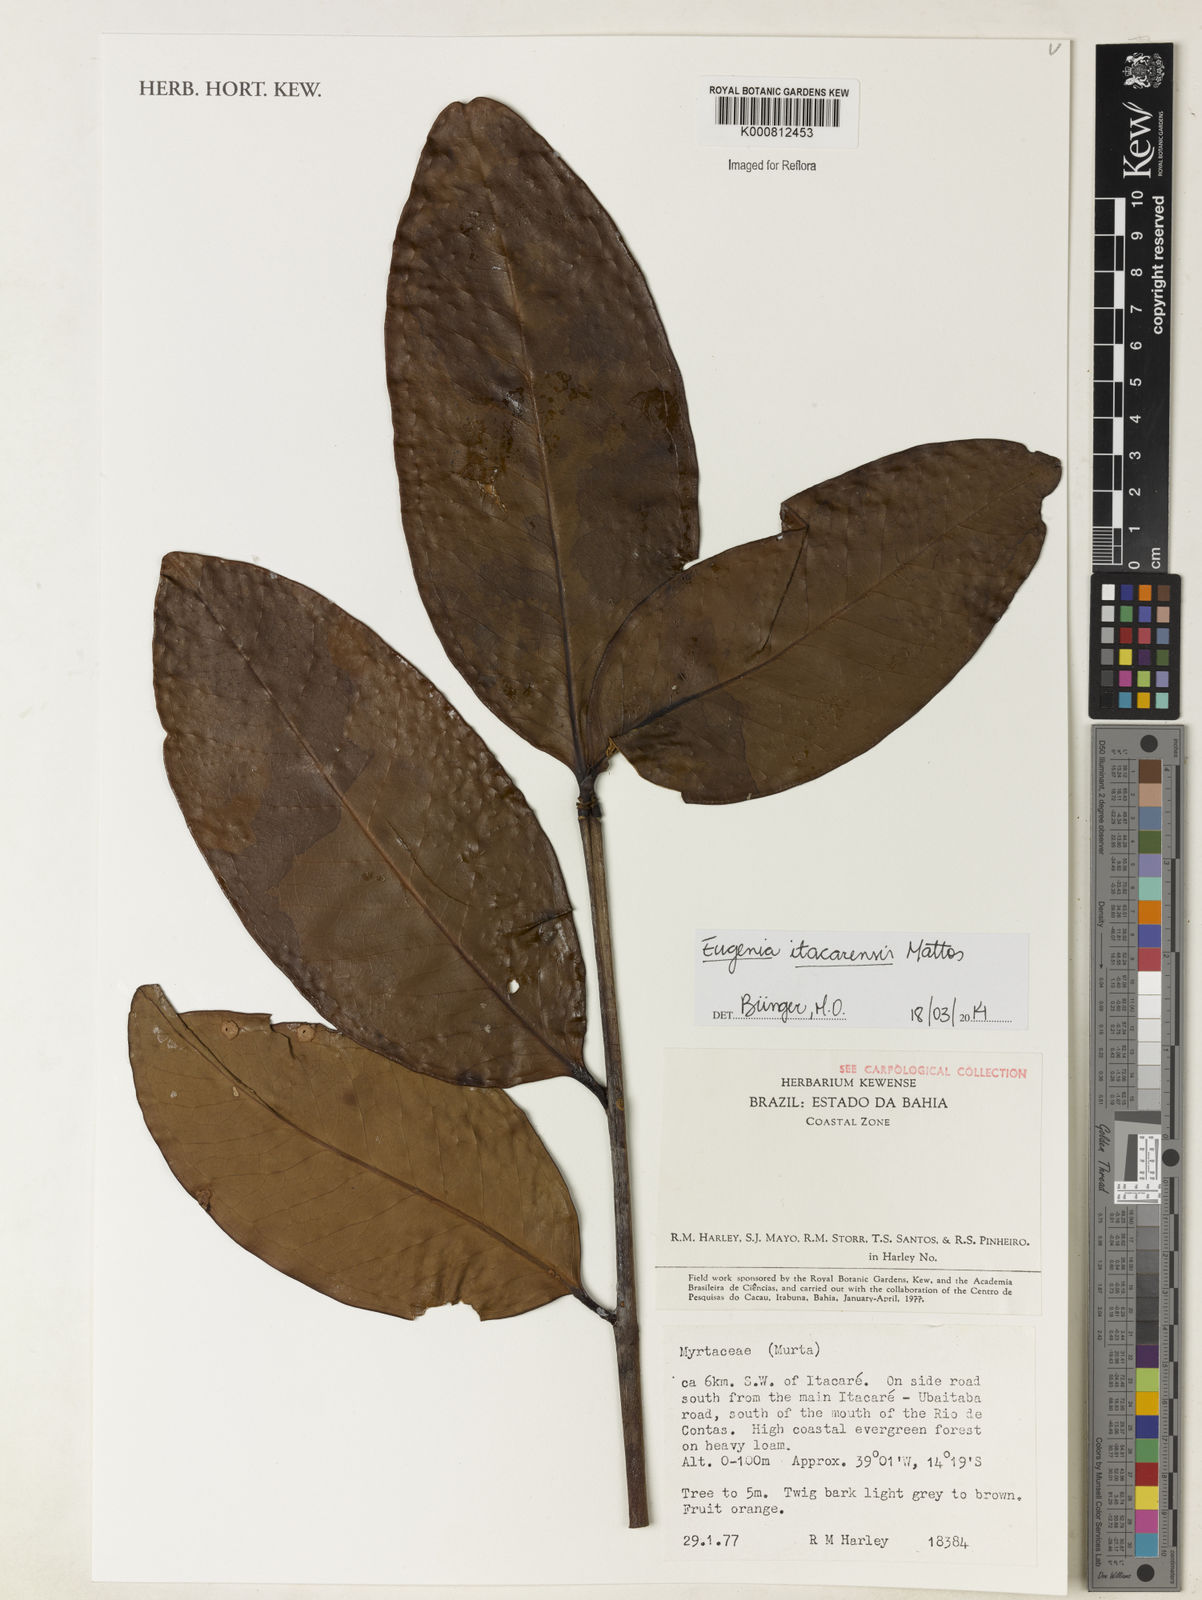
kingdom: Plantae
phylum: Tracheophyta
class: Magnoliopsida
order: Myrtales
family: Myrtaceae
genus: Eugenia
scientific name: Eugenia itacarensis
